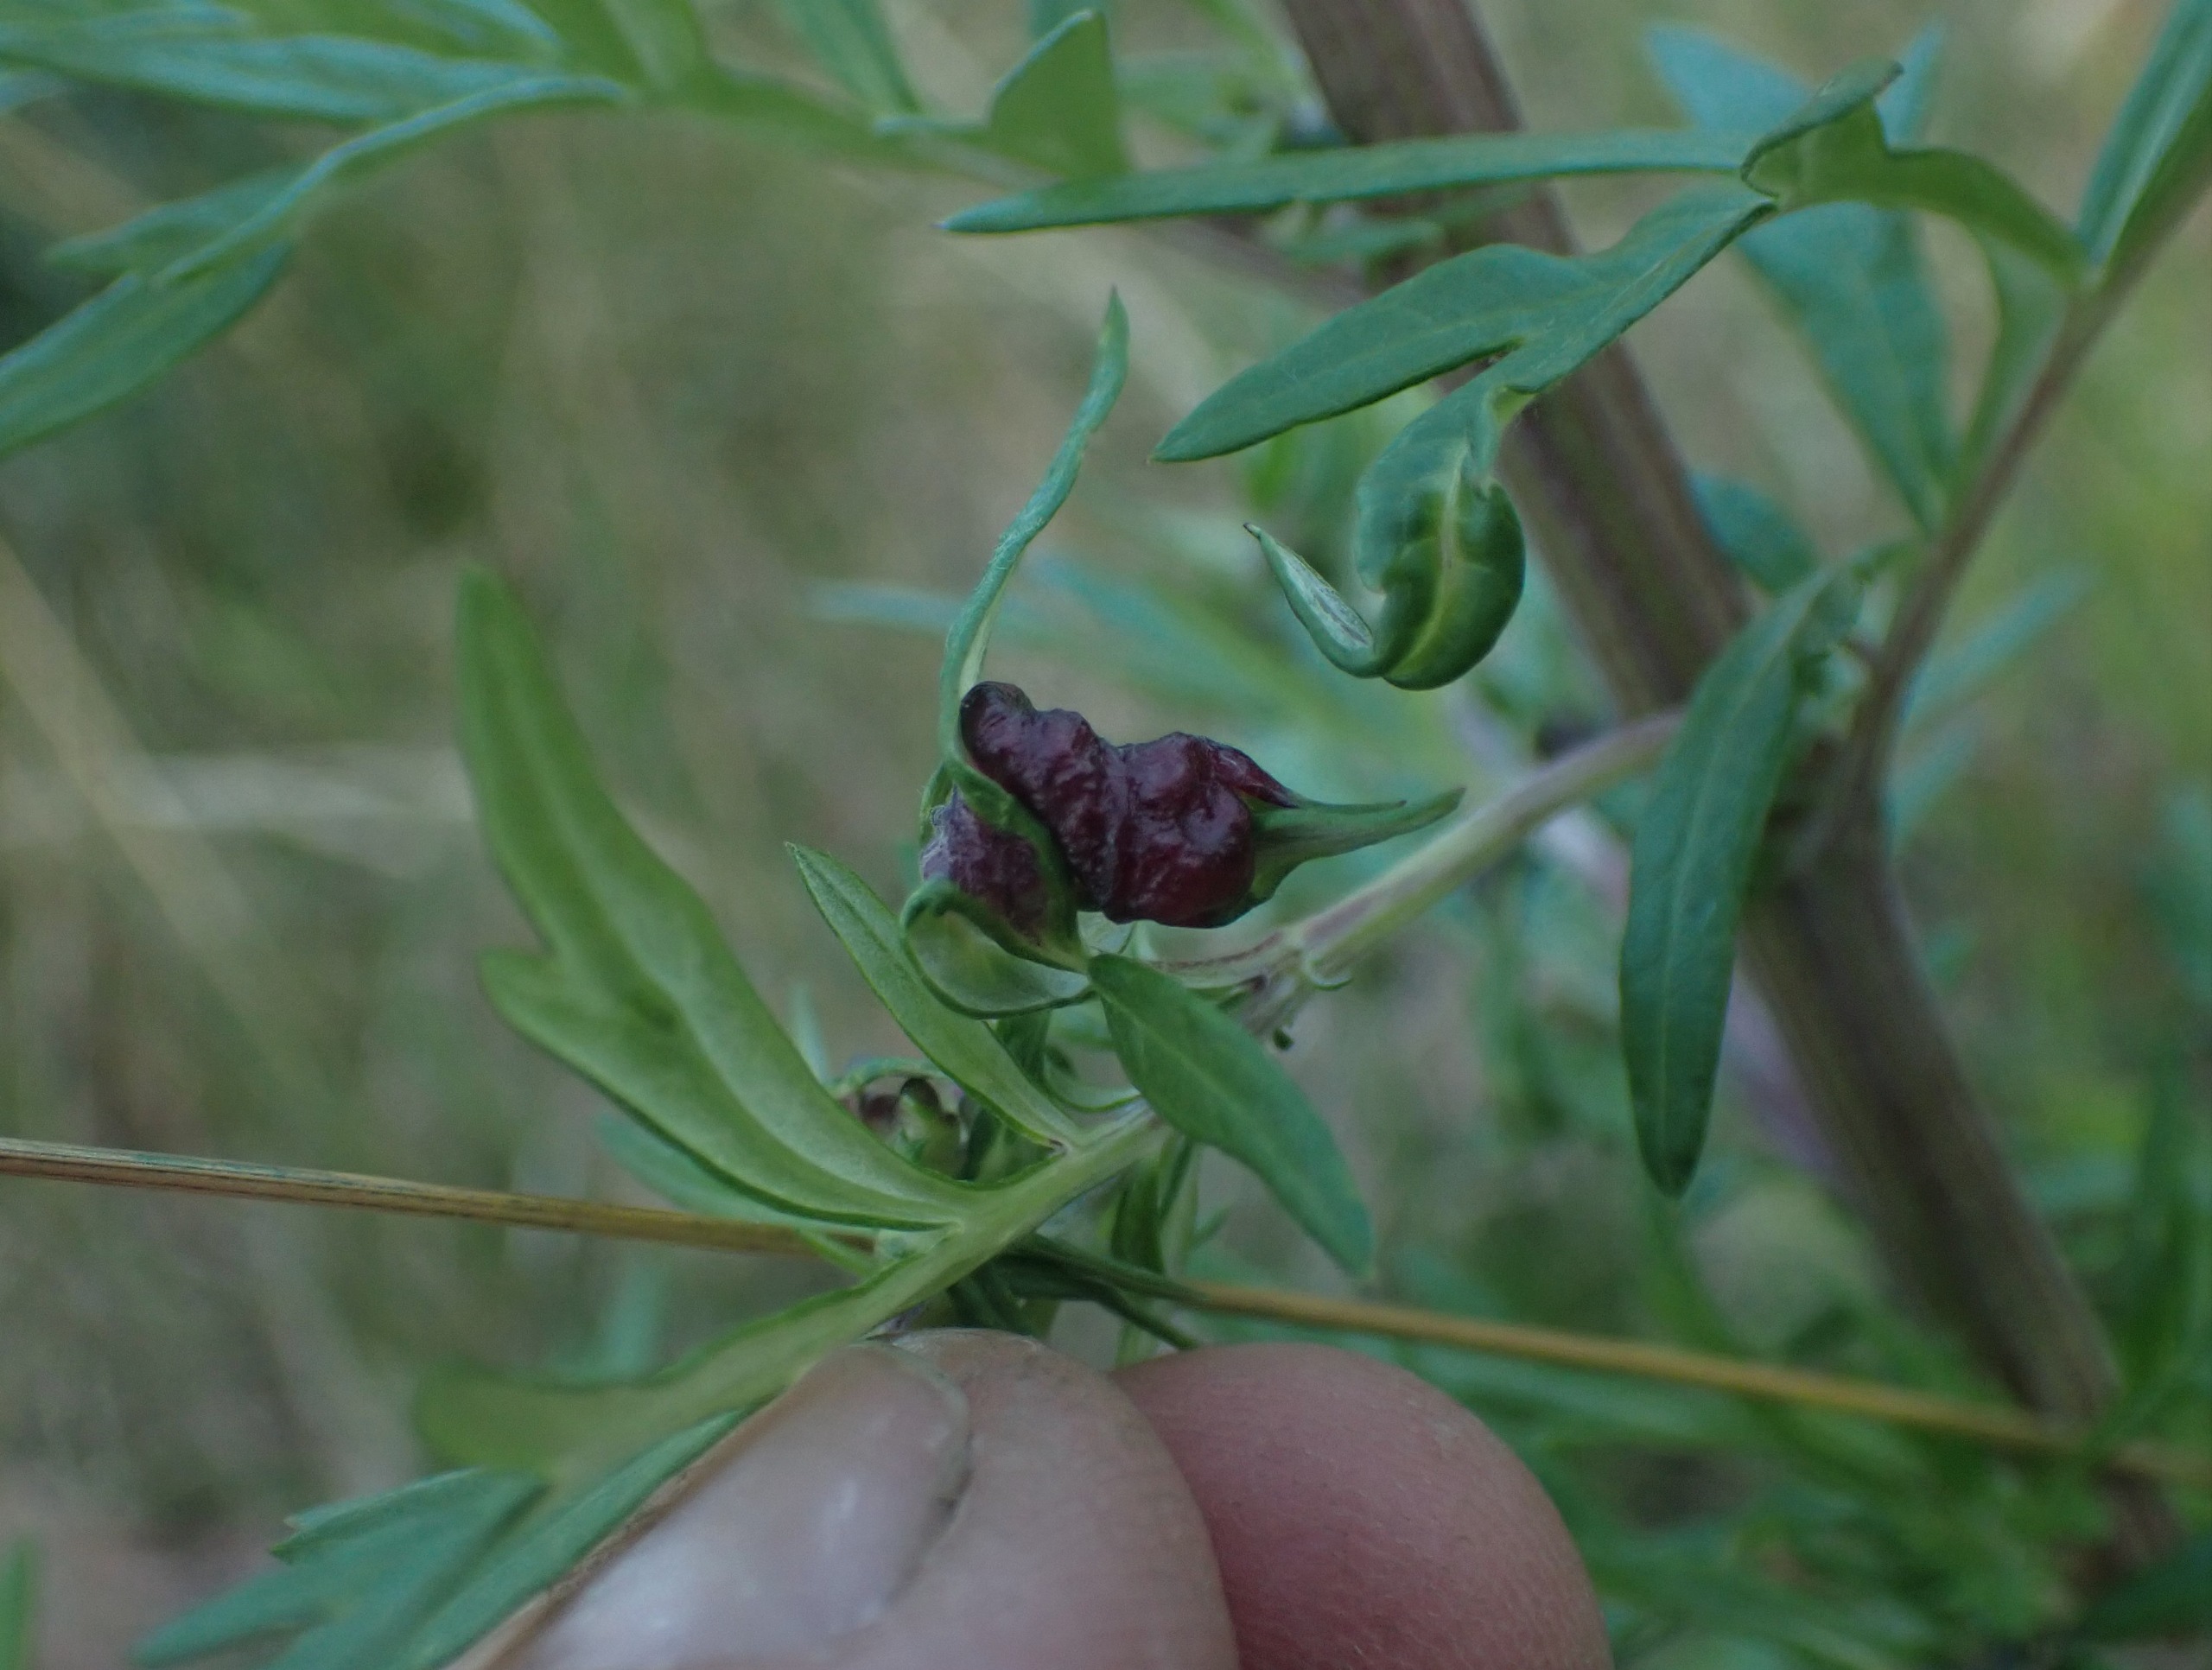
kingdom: Animalia
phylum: Arthropoda
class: Insecta
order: Hemiptera
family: Aphididae
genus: Cryptosiphum
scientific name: Cryptosiphum artemisiae
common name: Bynkegallelus
